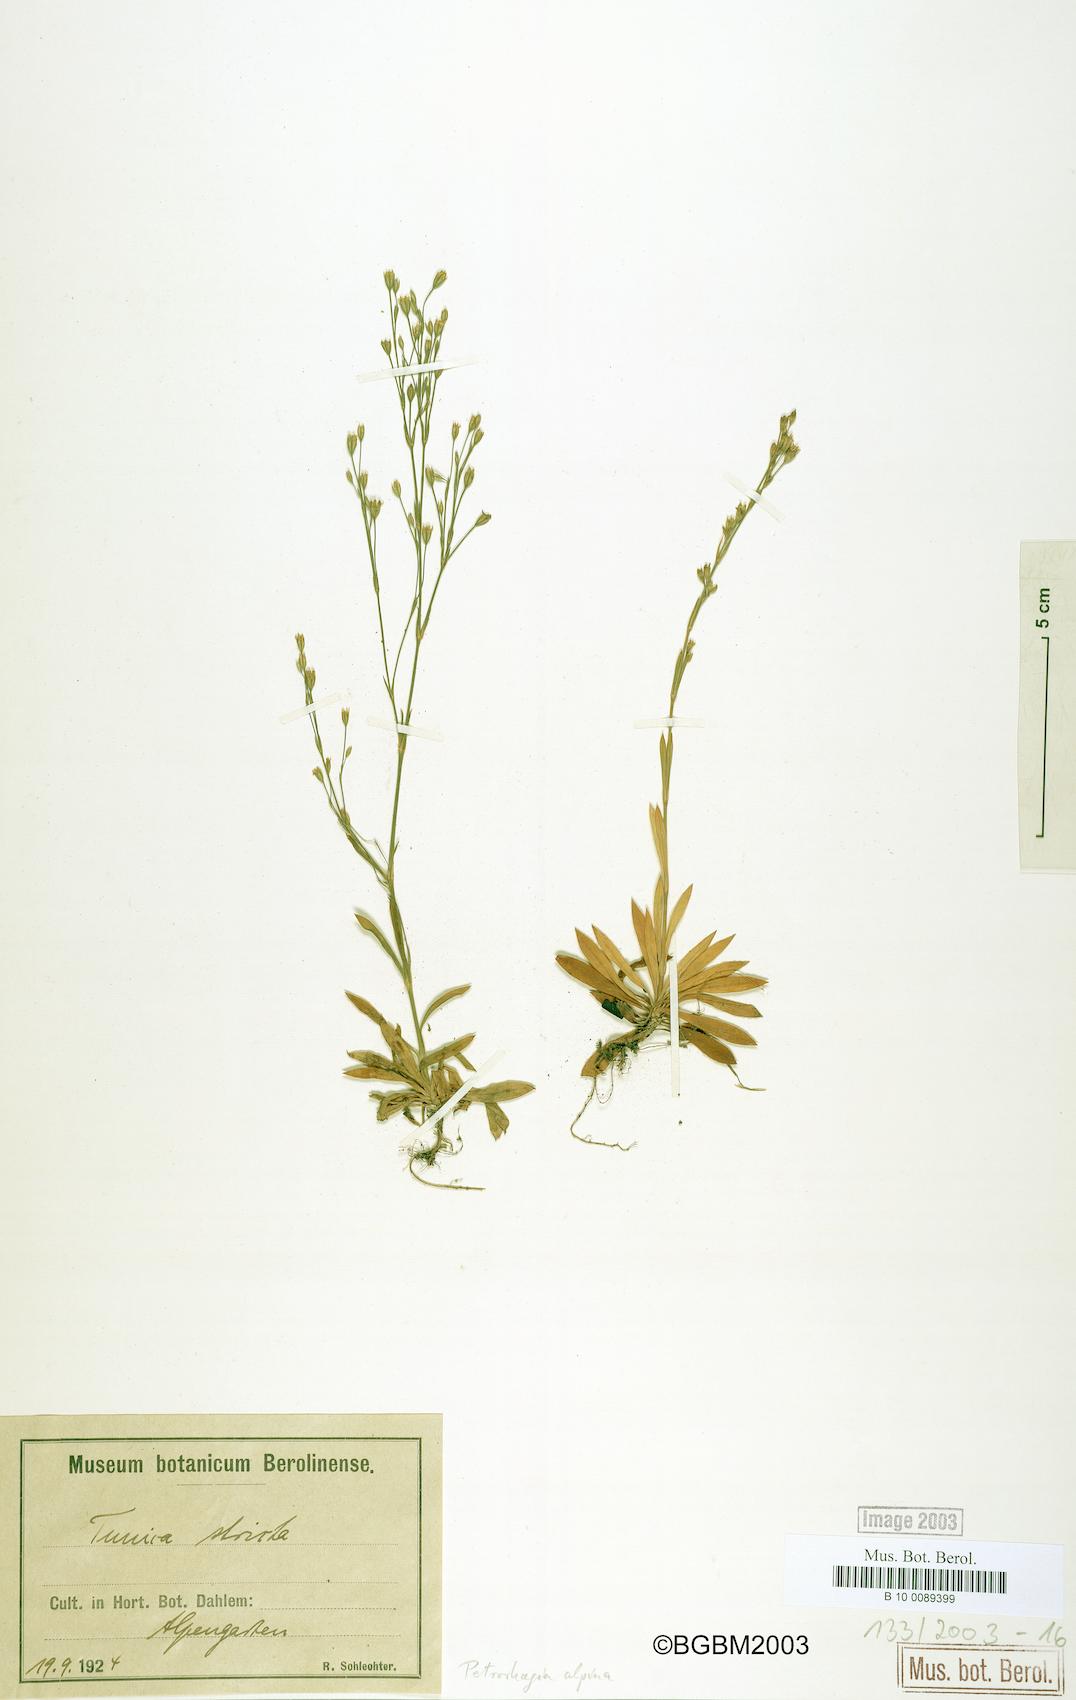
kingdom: Plantae
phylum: Tracheophyta
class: Magnoliopsida
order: Caryophyllales
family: Caryophyllaceae
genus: Petrorhagia
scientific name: Petrorhagia alpina
